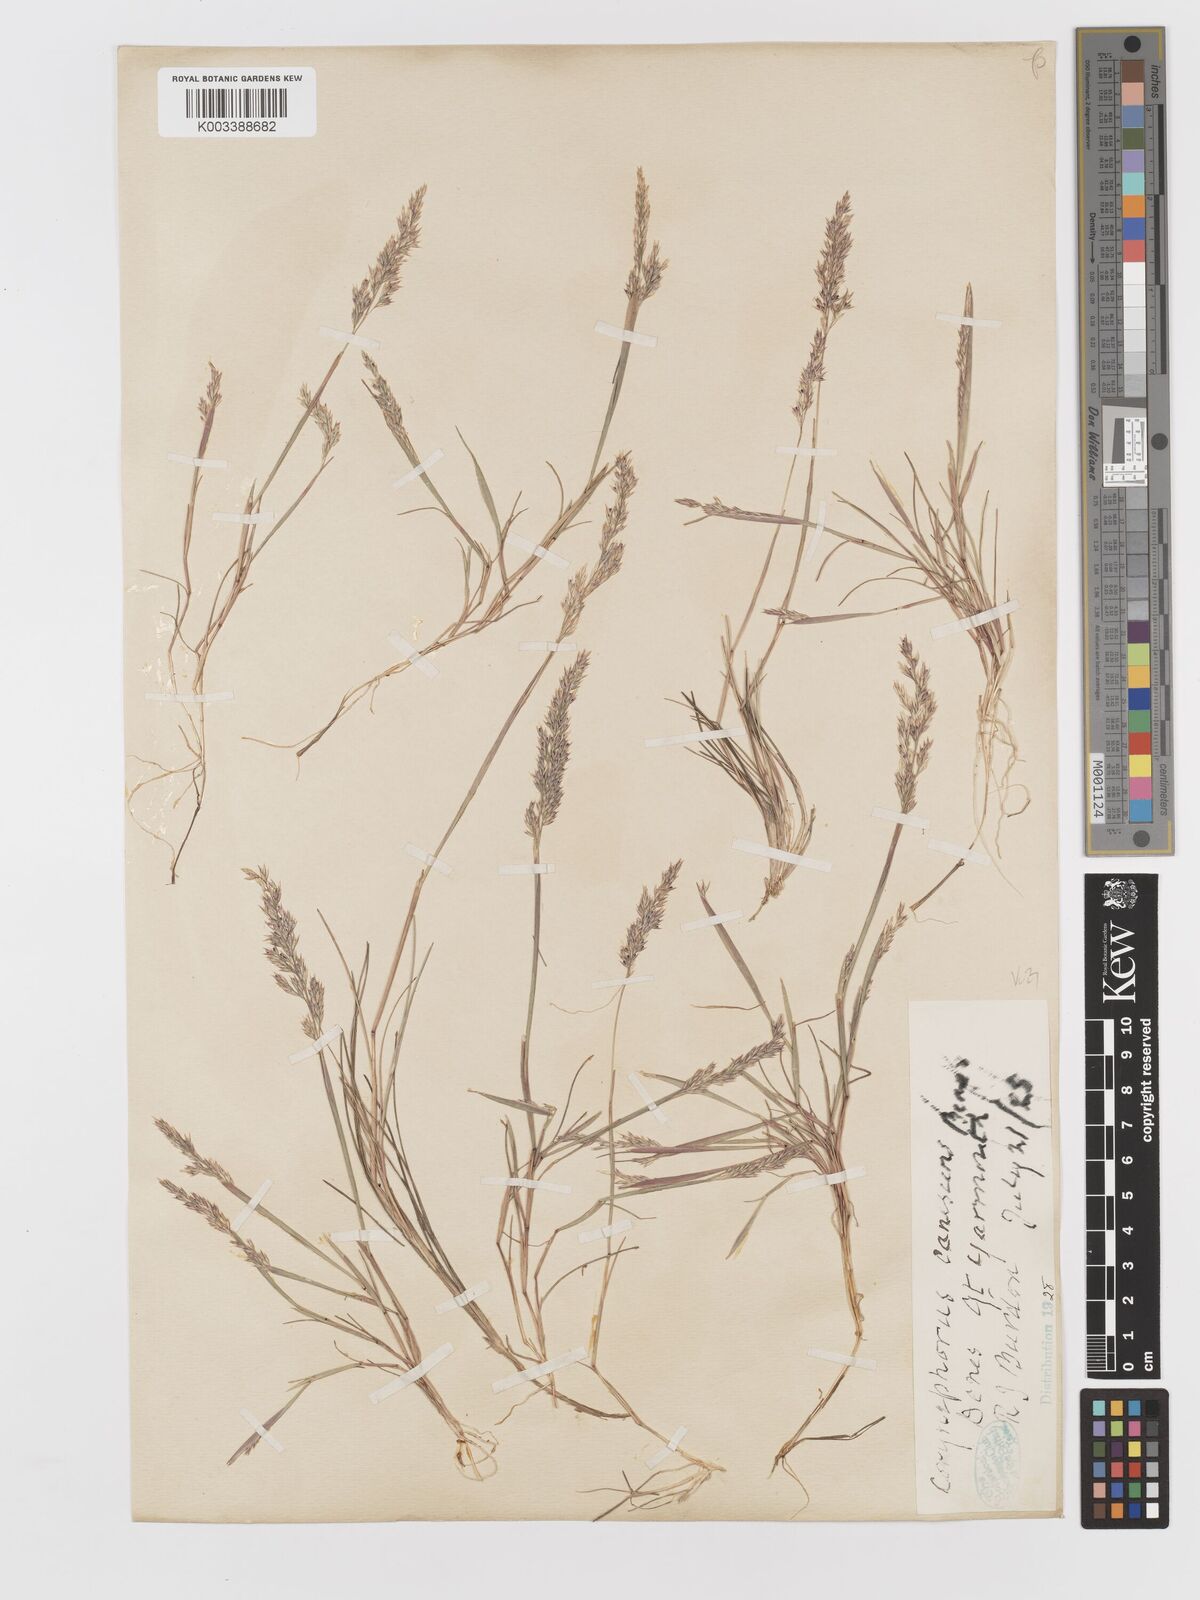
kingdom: Plantae
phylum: Tracheophyta
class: Liliopsida
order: Poales
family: Poaceae
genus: Corynephorus
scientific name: Corynephorus canescens
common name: Grey hair-grass
